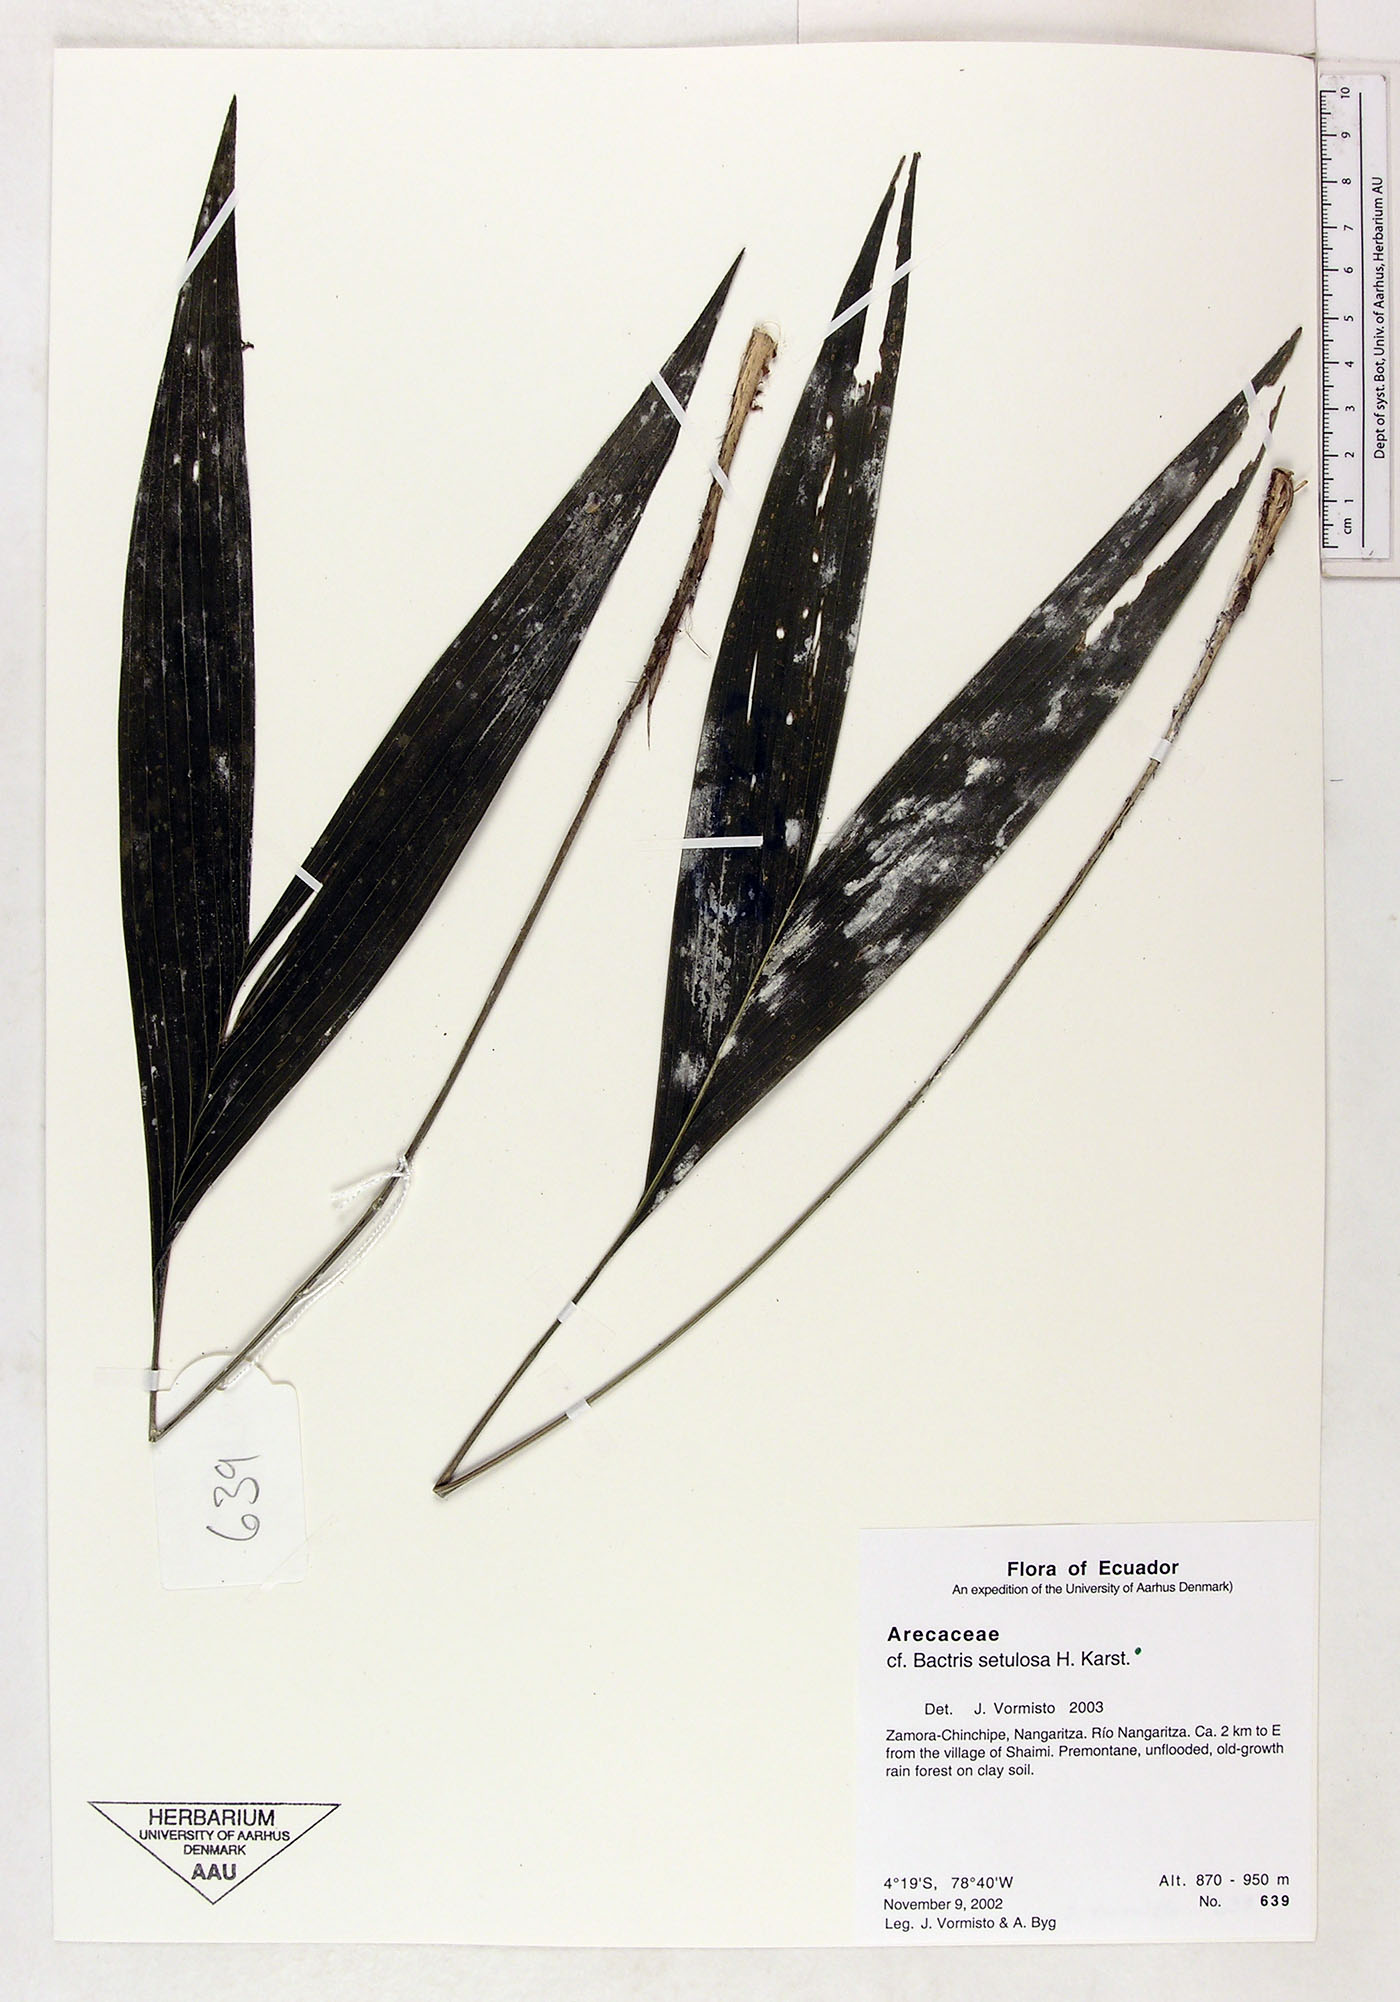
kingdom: Plantae
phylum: Tracheophyta
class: Liliopsida
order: Arecales
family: Arecaceae
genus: Bactris
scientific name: Bactris setulosa
